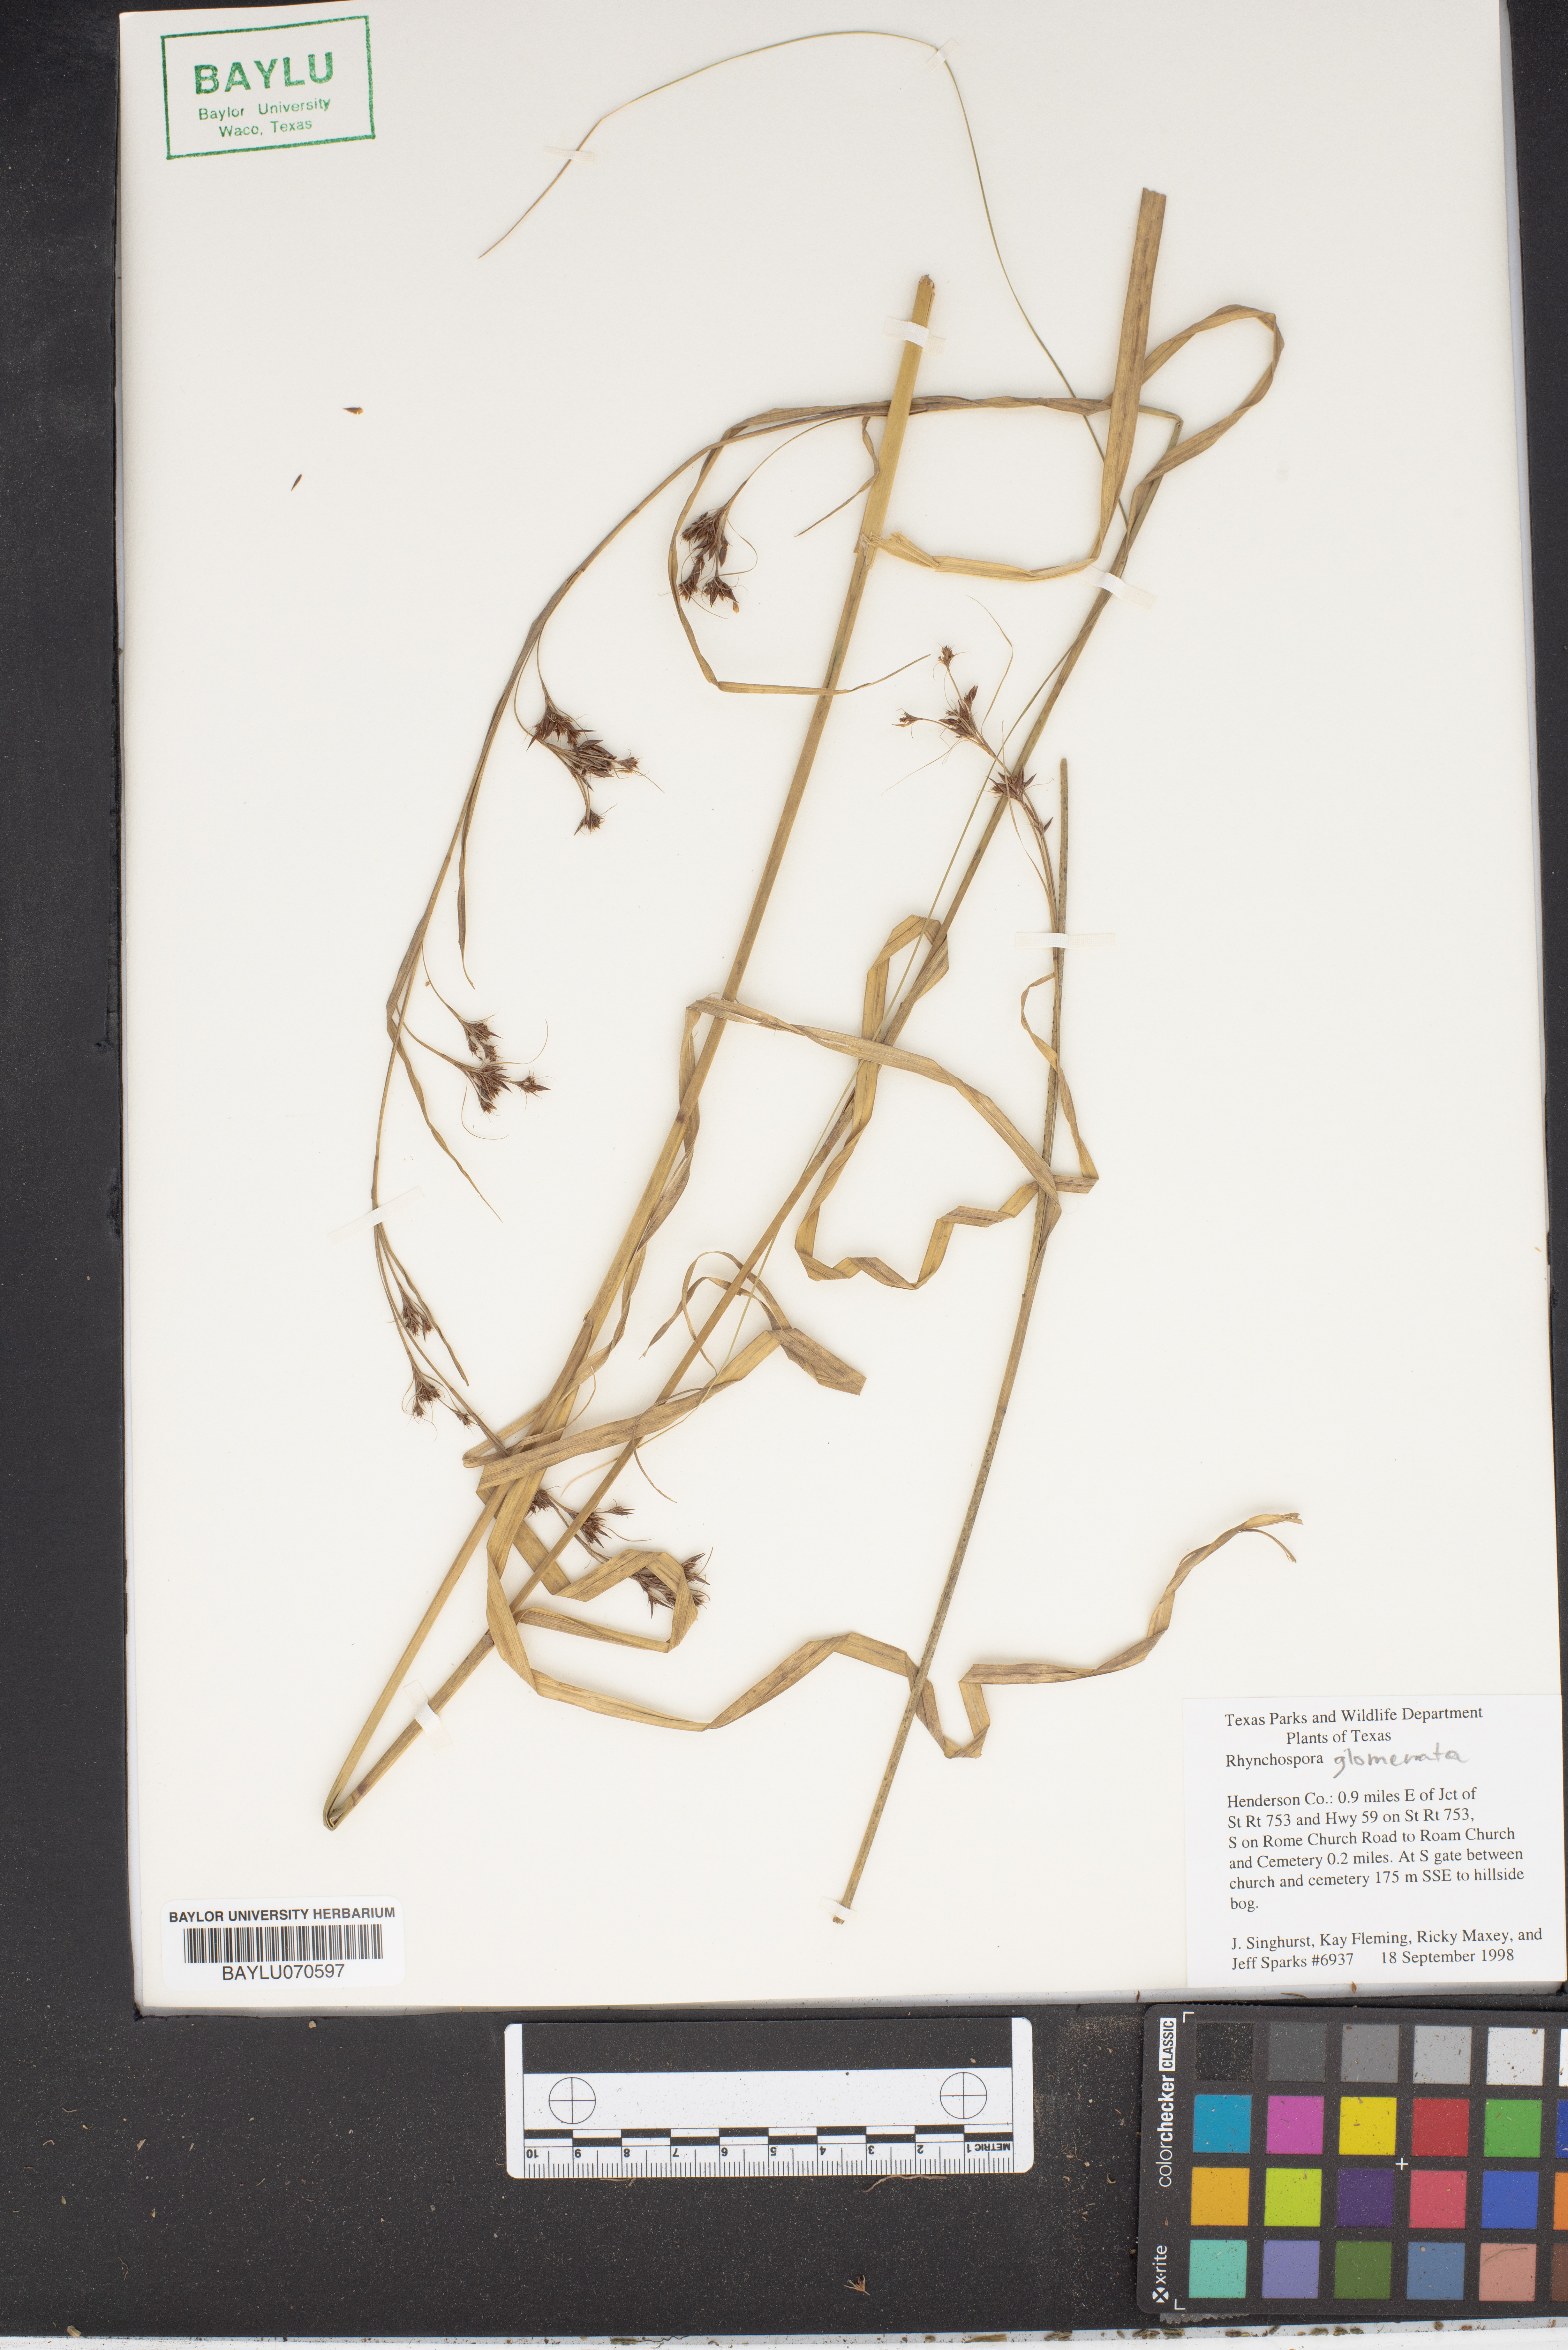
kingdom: Plantae
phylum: Tracheophyta
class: Liliopsida
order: Poales
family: Cyperaceae
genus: Rhynchospora
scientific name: Rhynchospora glomerata
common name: Cluster beak sedge
